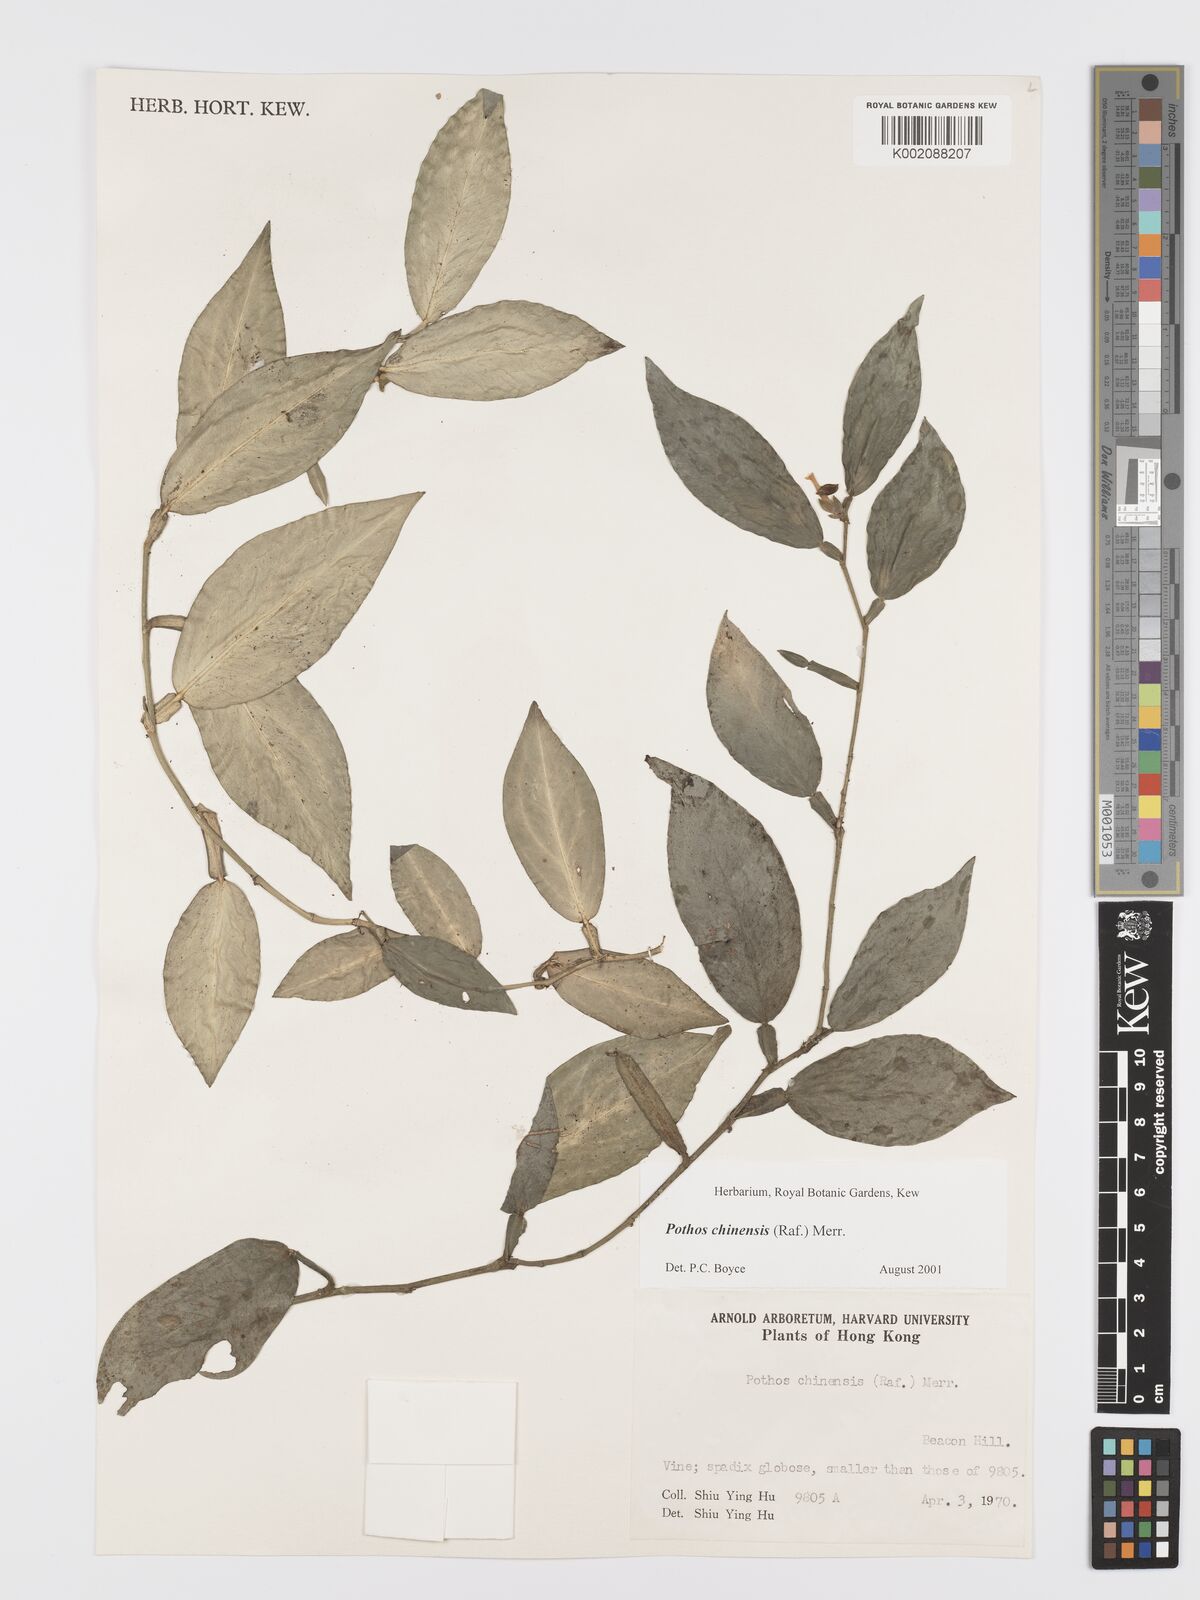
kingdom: Plantae
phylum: Tracheophyta
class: Liliopsida
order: Alismatales
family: Araceae
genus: Pothos
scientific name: Pothos chinensis
